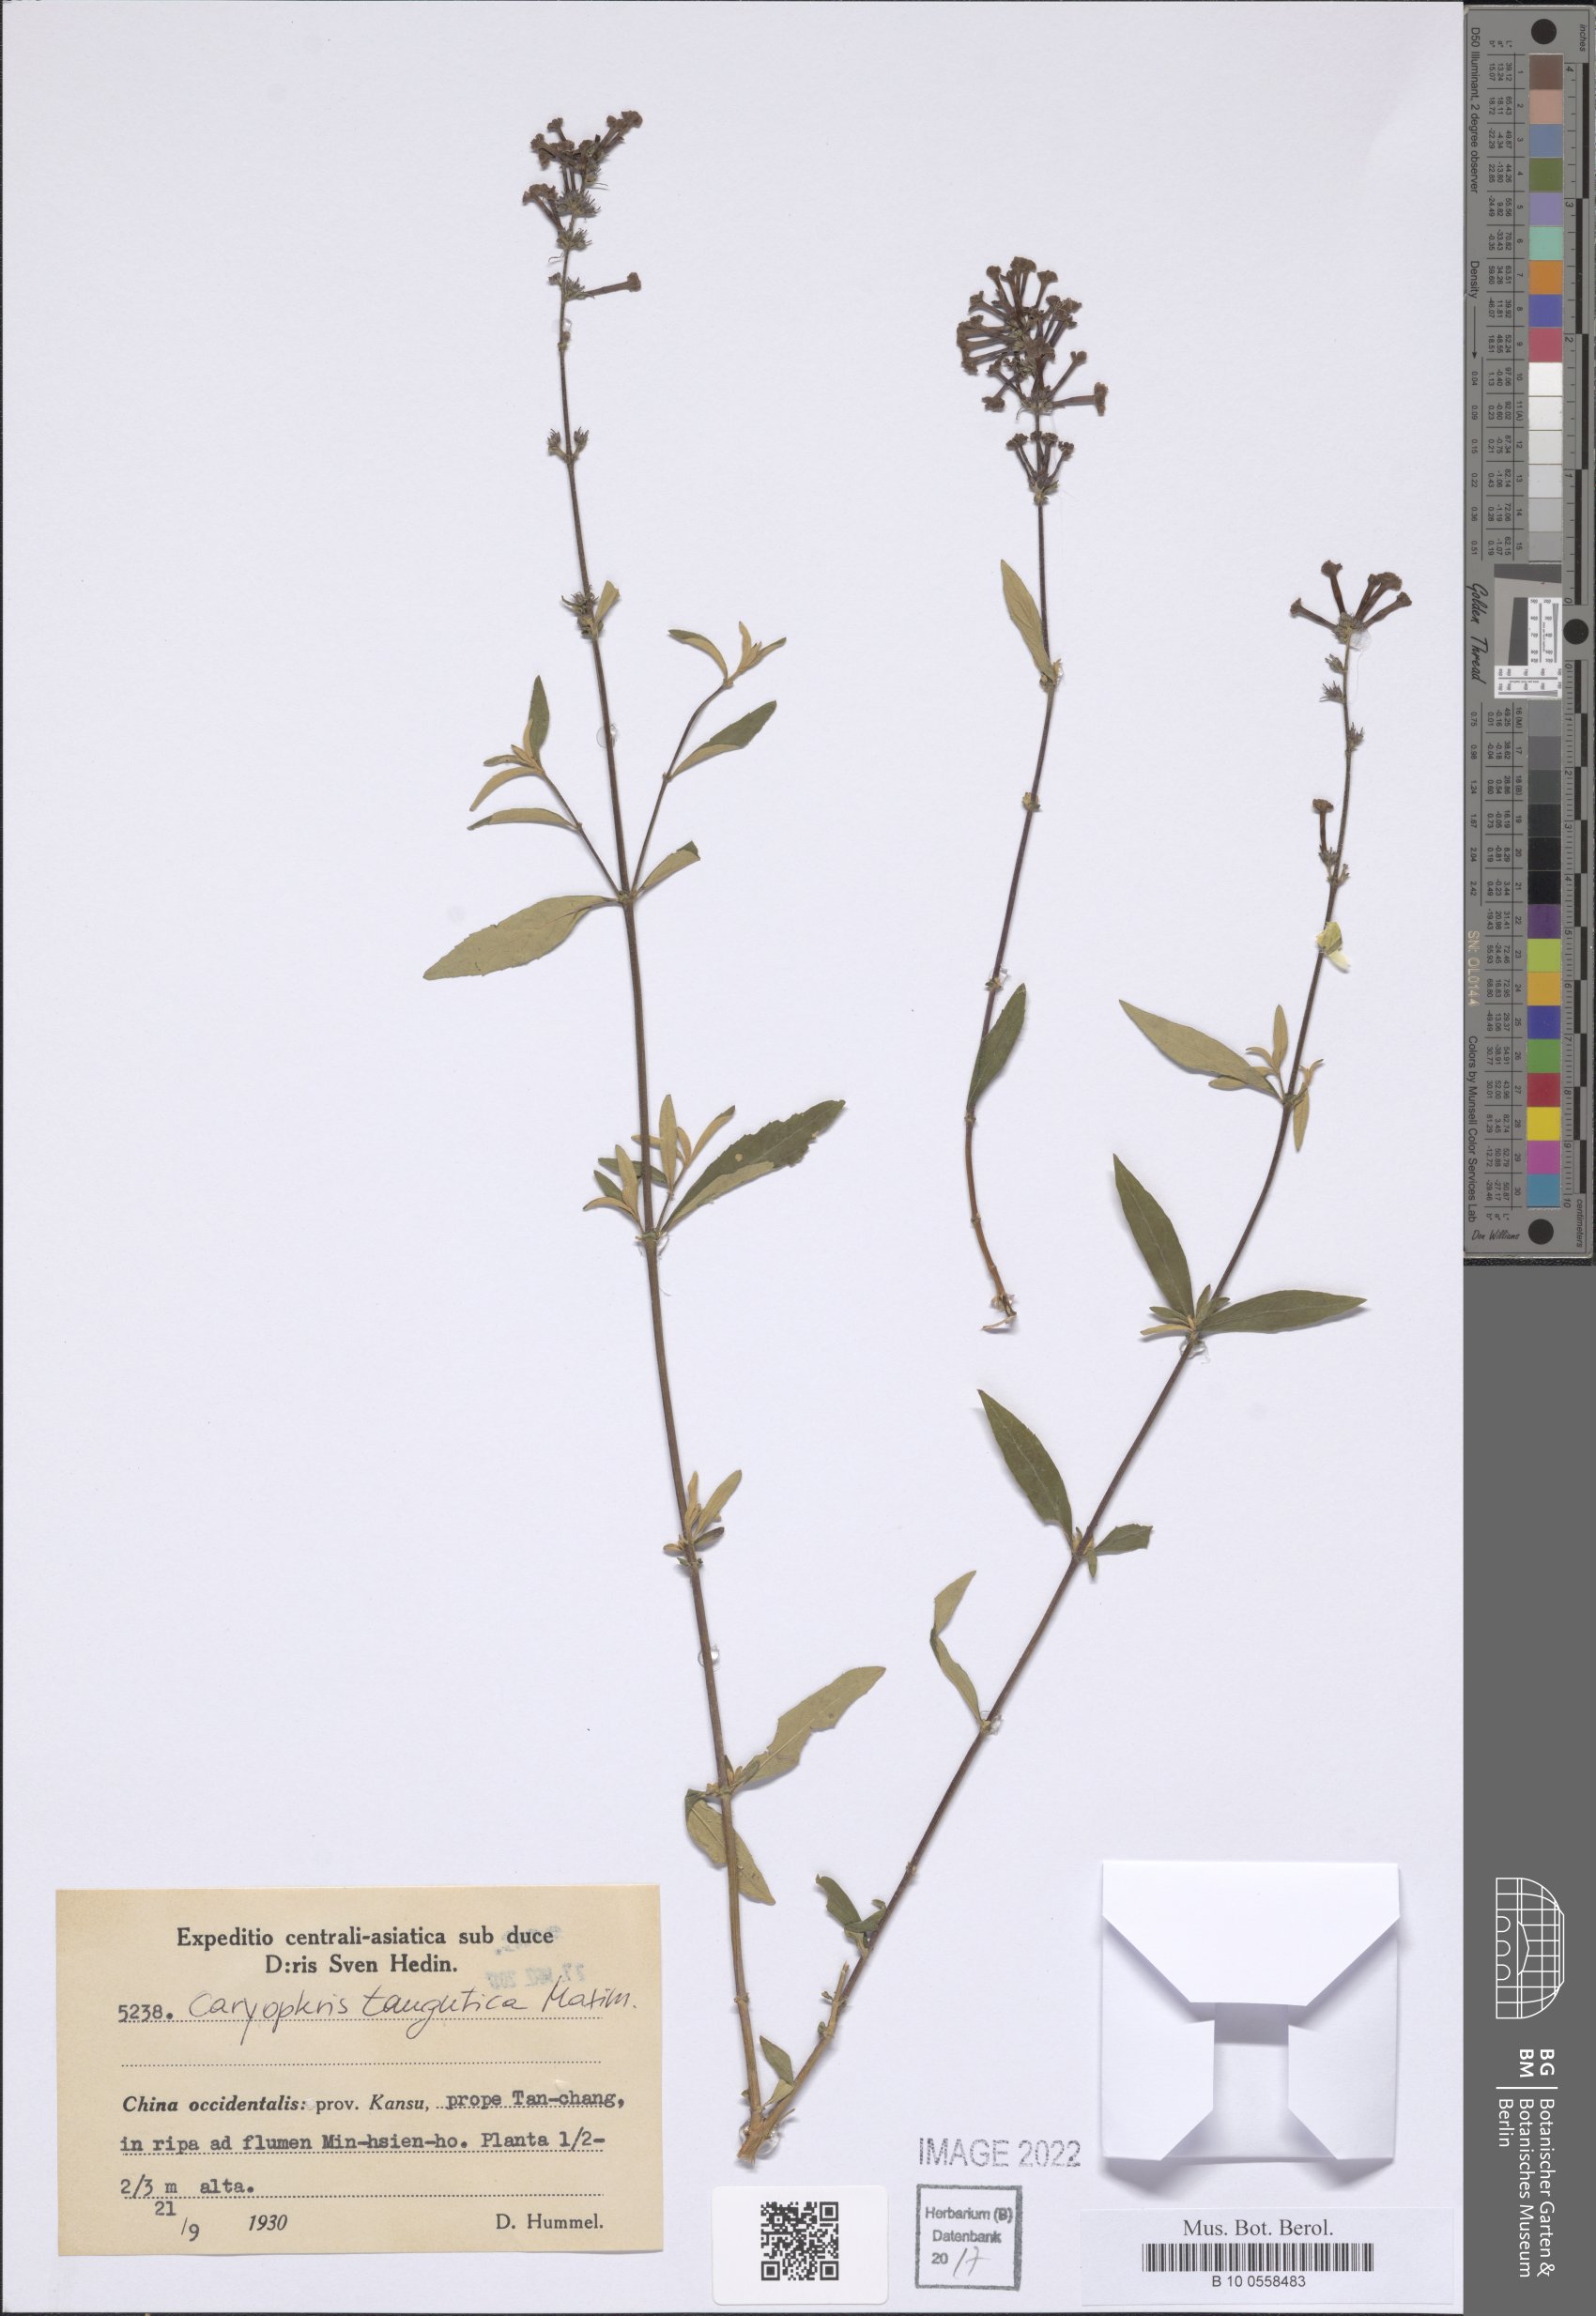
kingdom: Plantae
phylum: Tracheophyta
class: Magnoliopsida
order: Lamiales
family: Lamiaceae
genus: Caryopteris
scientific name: Caryopteris tangutica
